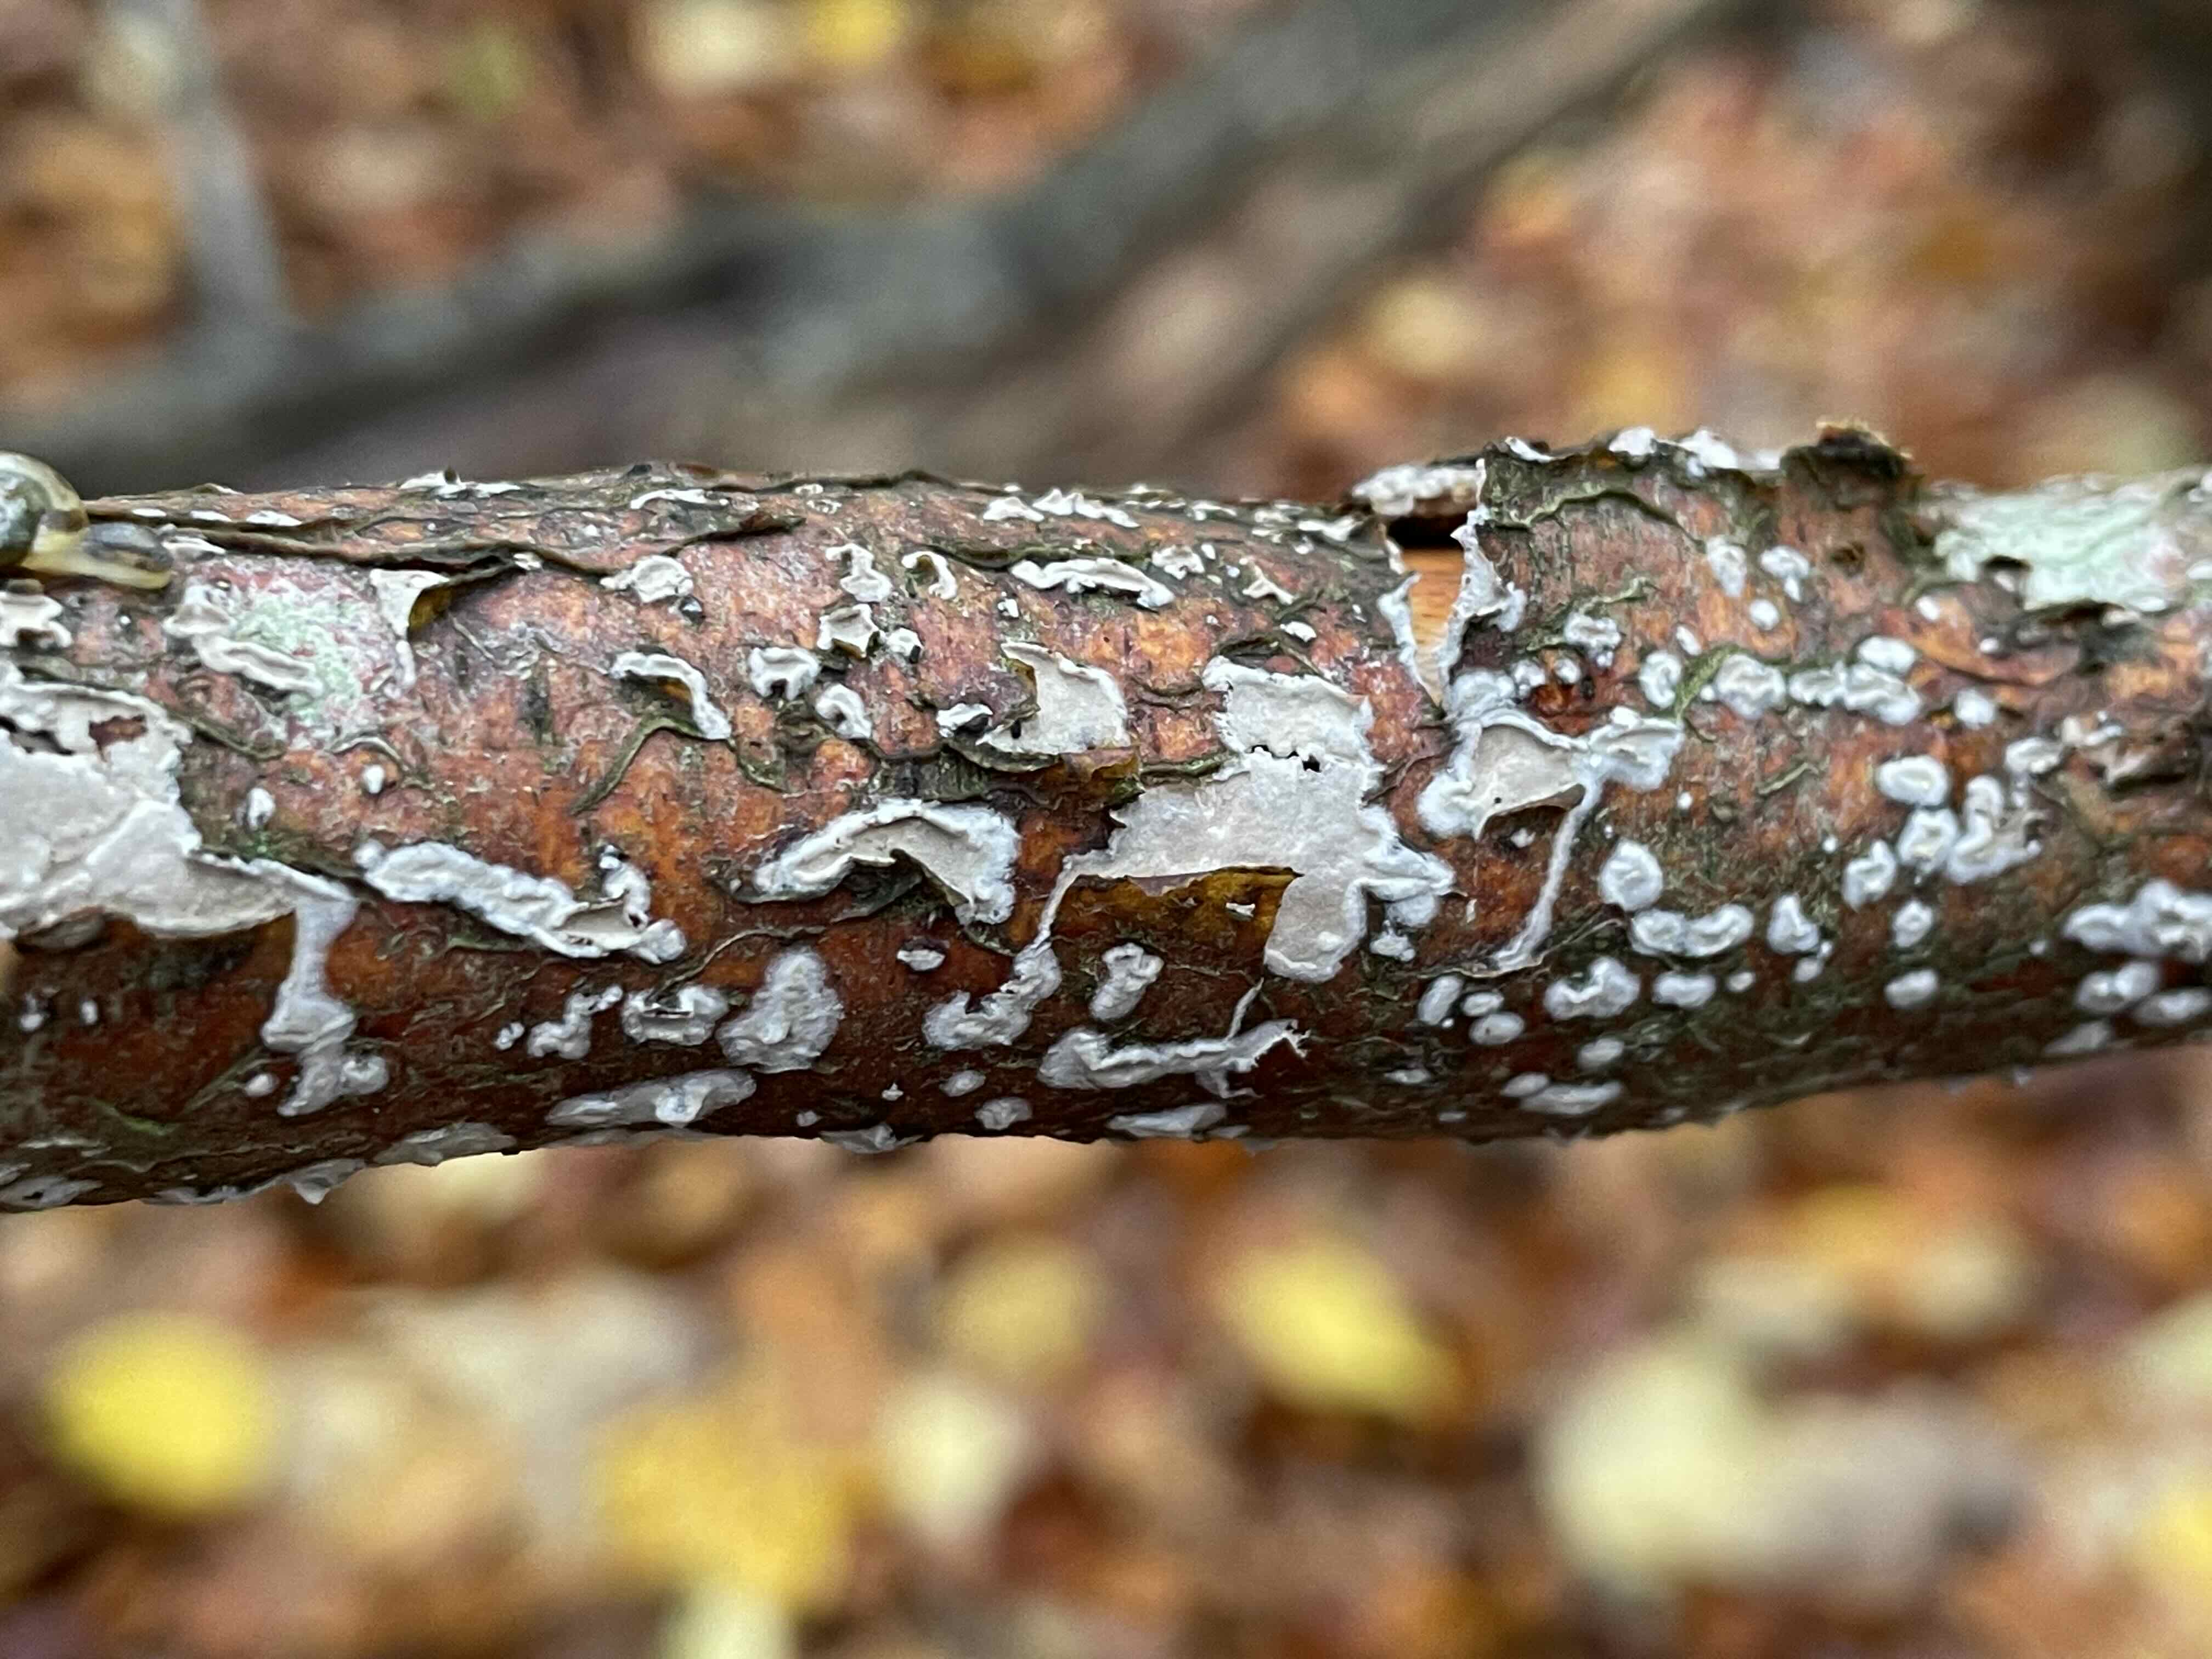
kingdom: Fungi
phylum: Basidiomycota
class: Agaricomycetes
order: Corticiales
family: Corticiaceae
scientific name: Corticiaceae
